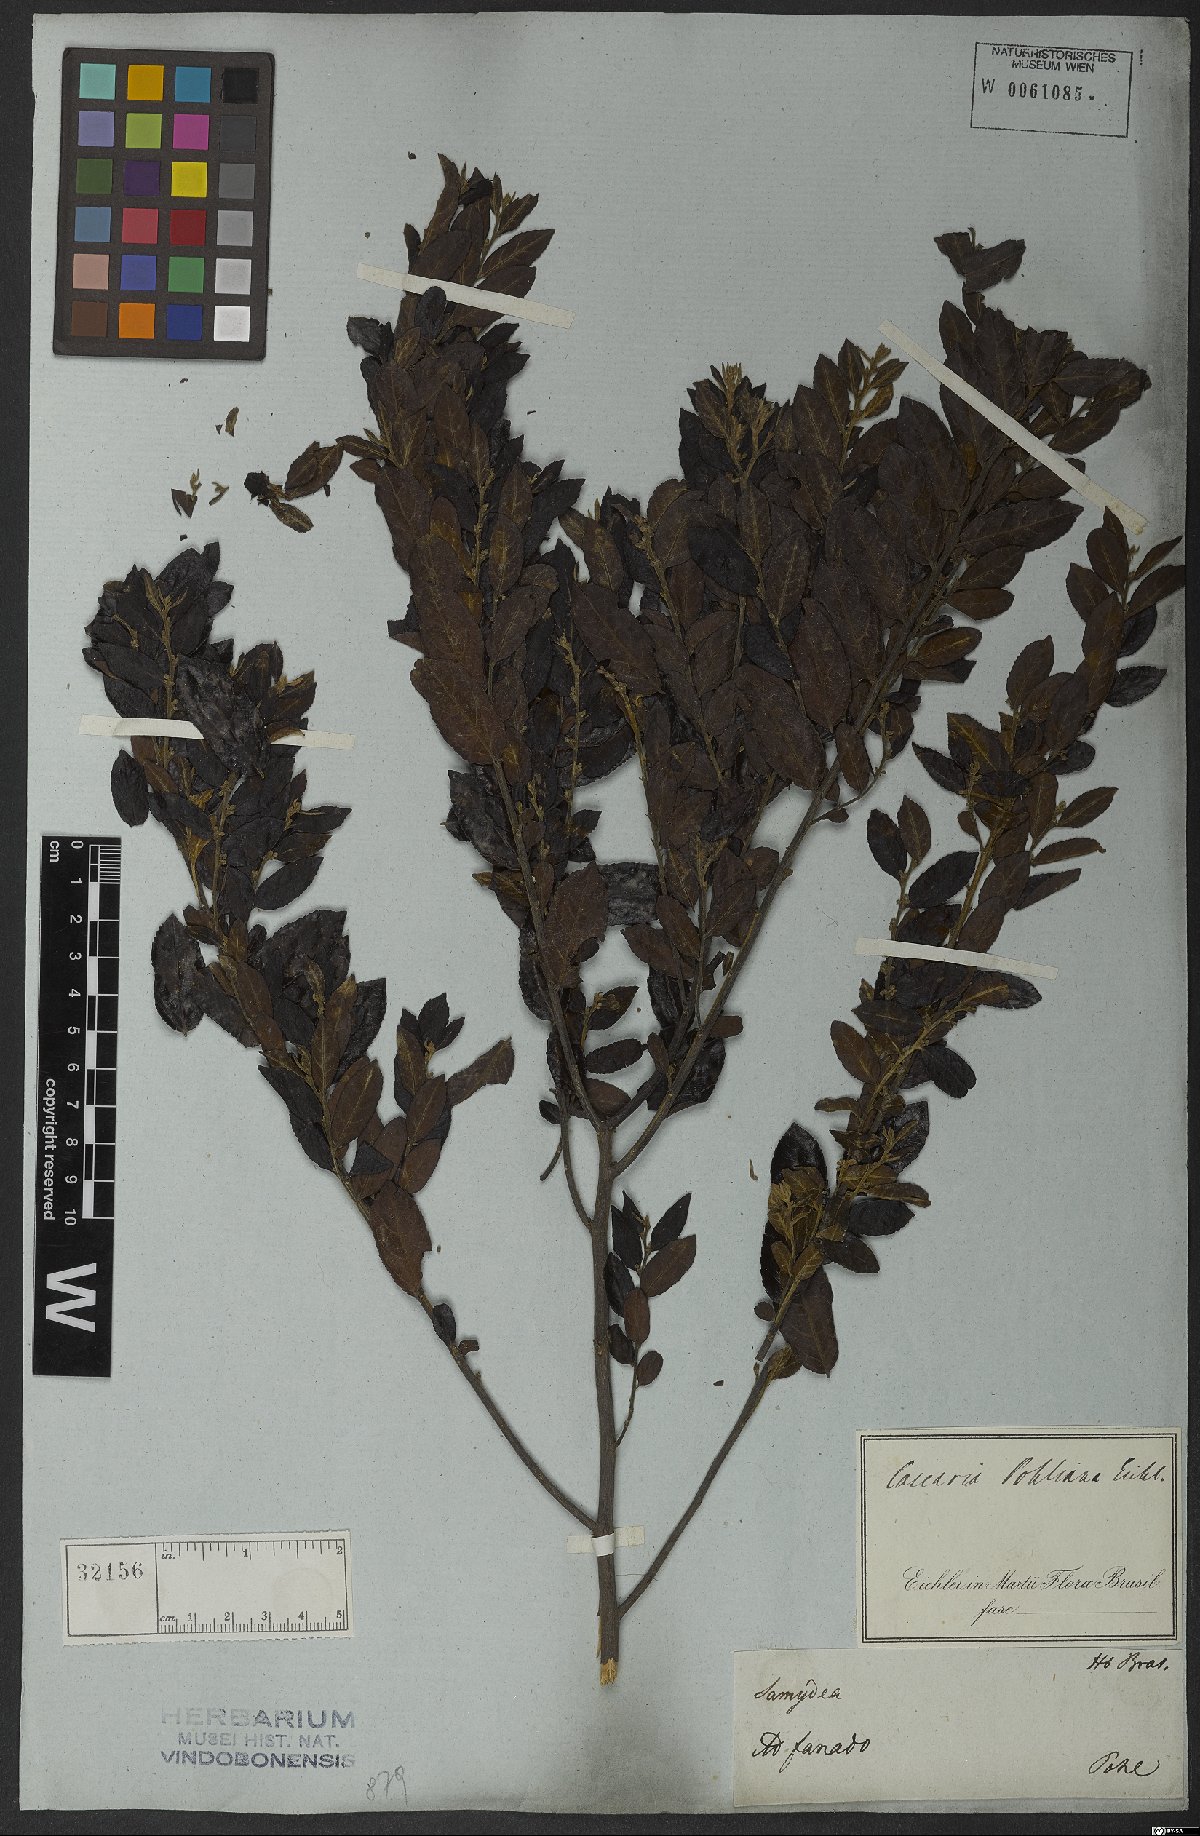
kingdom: Plantae
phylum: Tracheophyta
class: Magnoliopsida
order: Malpighiales
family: Salicaceae
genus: Casearia
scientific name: Casearia rufescens
